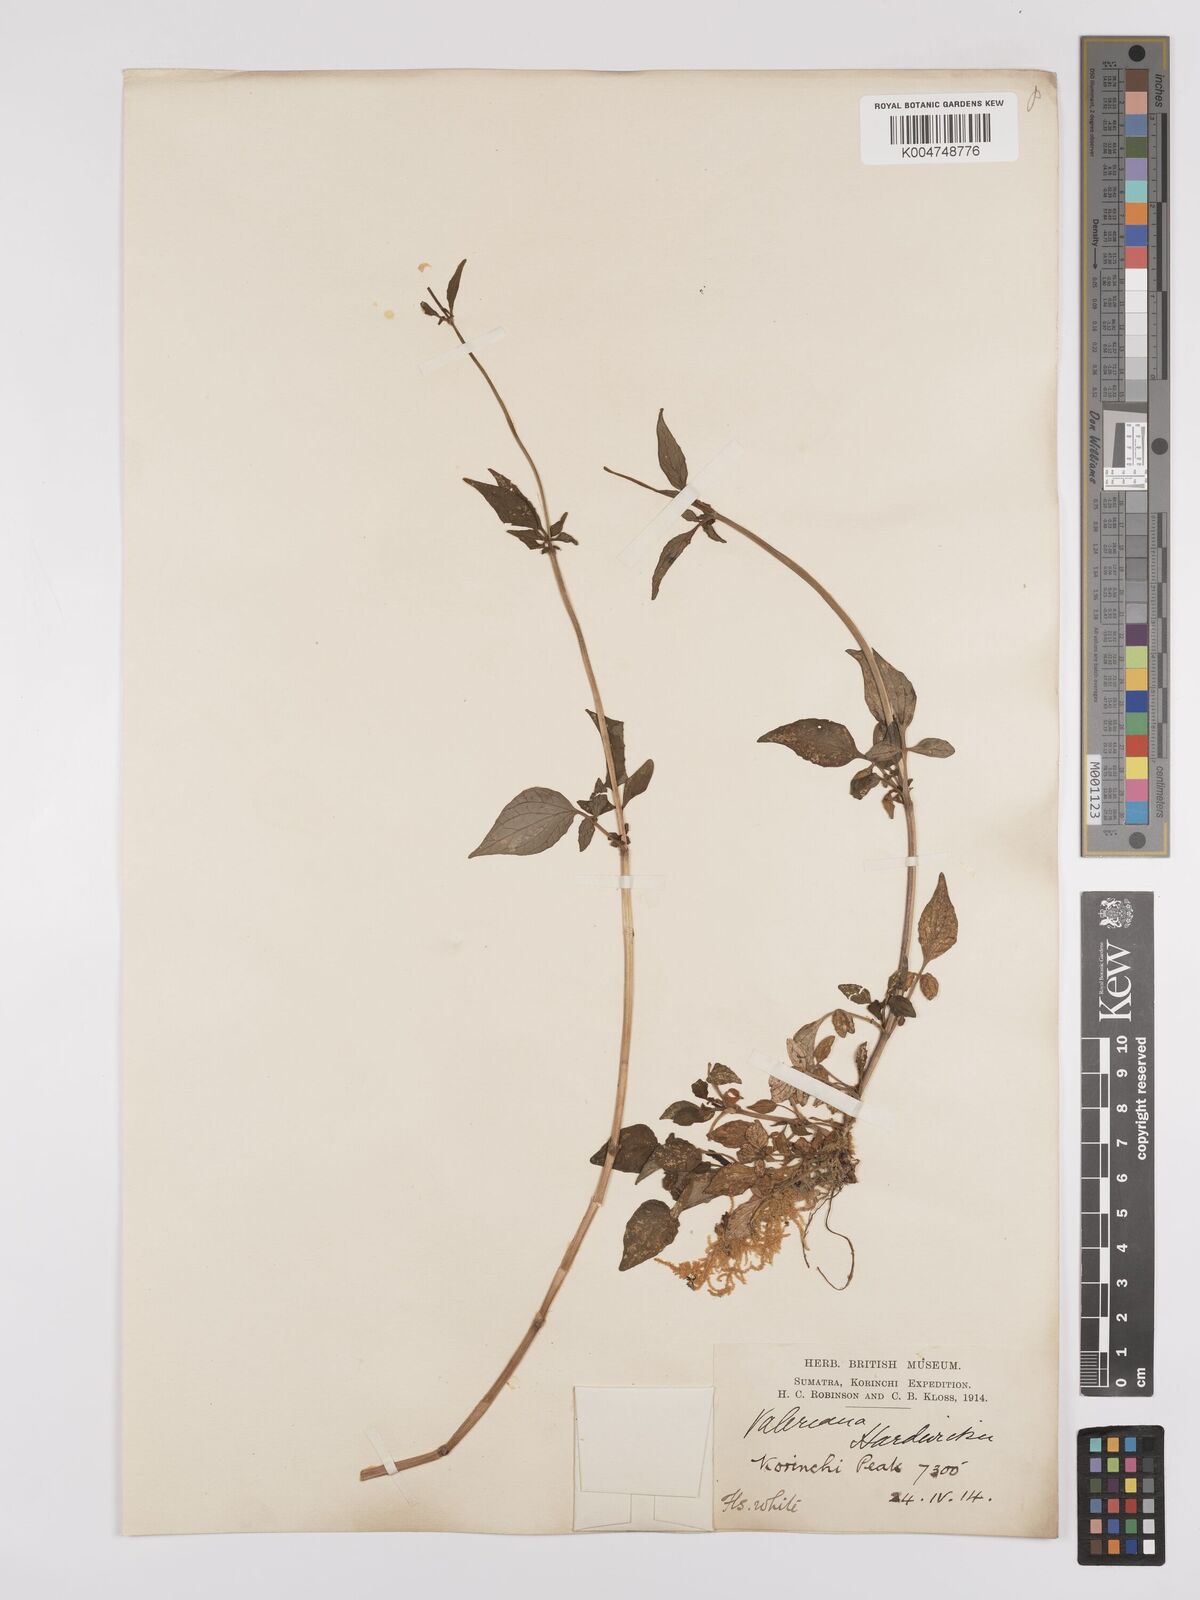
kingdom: Plantae
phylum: Tracheophyta
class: Magnoliopsida
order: Dipsacales
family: Caprifoliaceae
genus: Valeriana
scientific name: Valeriana hardwickei
